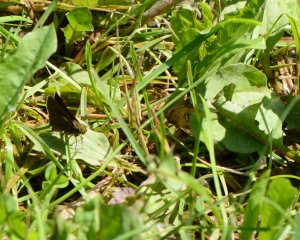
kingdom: Animalia
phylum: Arthropoda
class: Insecta
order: Lepidoptera
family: Hesperiidae
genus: Euphyes
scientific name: Euphyes vestris
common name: Dun Skipper
